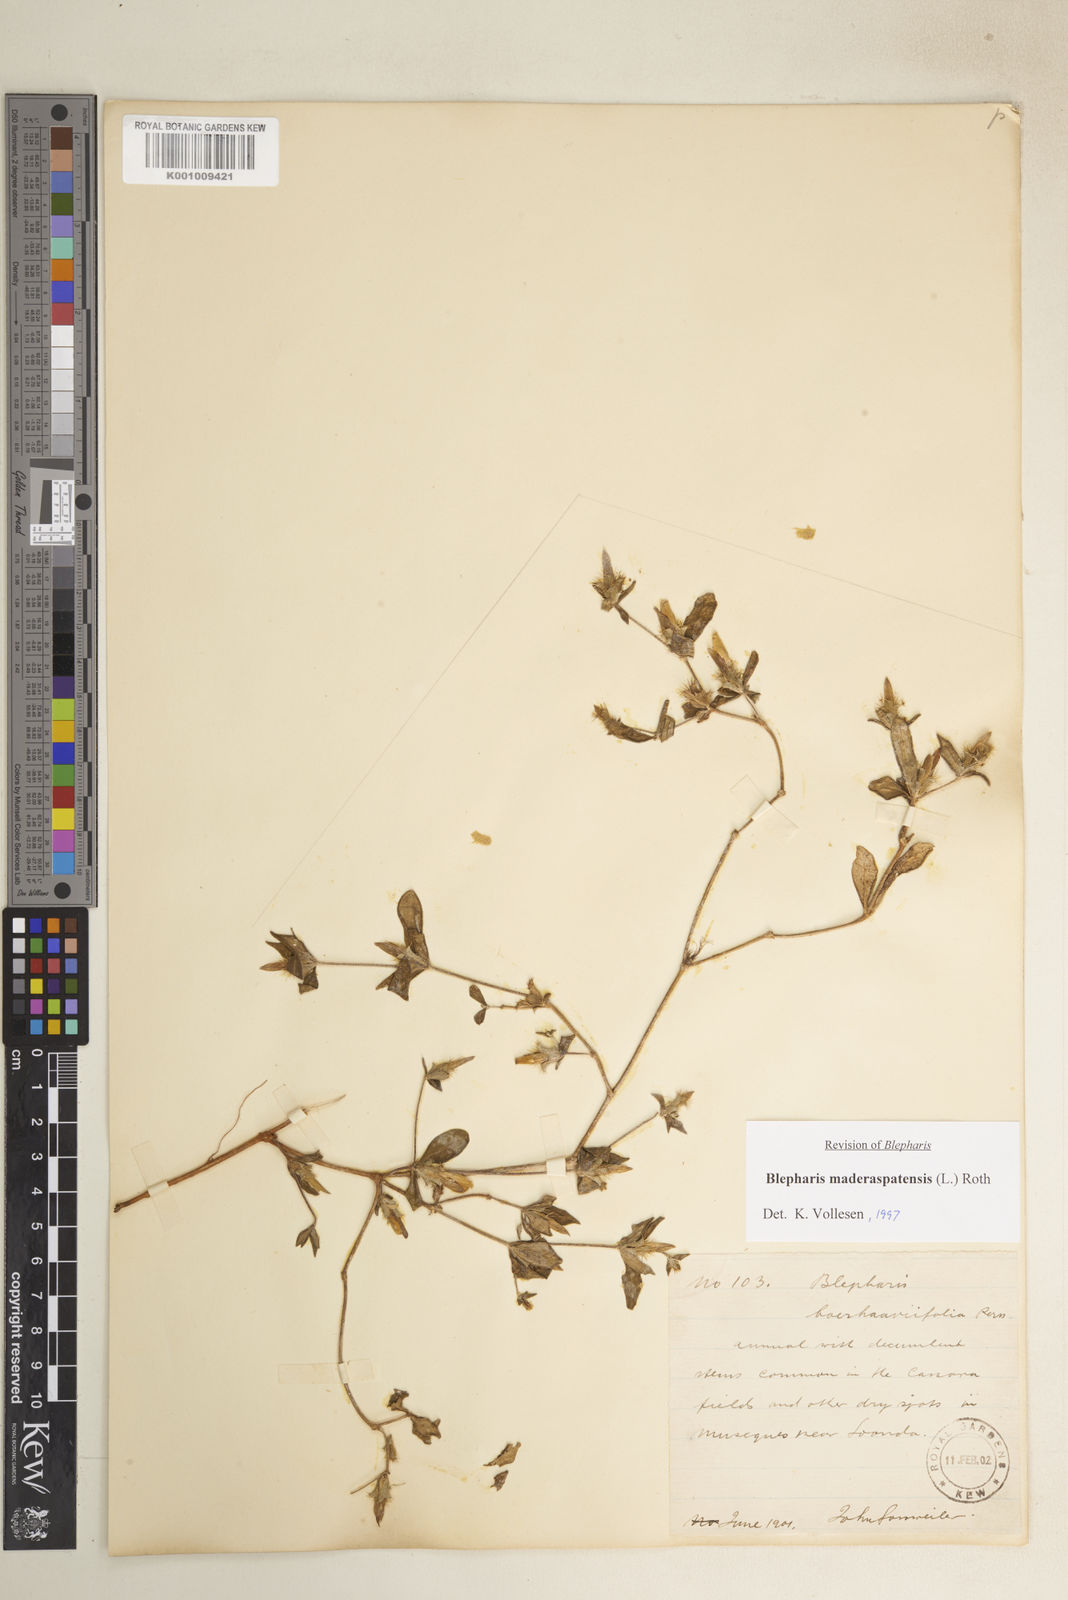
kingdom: Plantae
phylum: Tracheophyta
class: Magnoliopsida
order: Lamiales
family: Acanthaceae
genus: Blepharis
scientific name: Blepharis maderaspatensis
